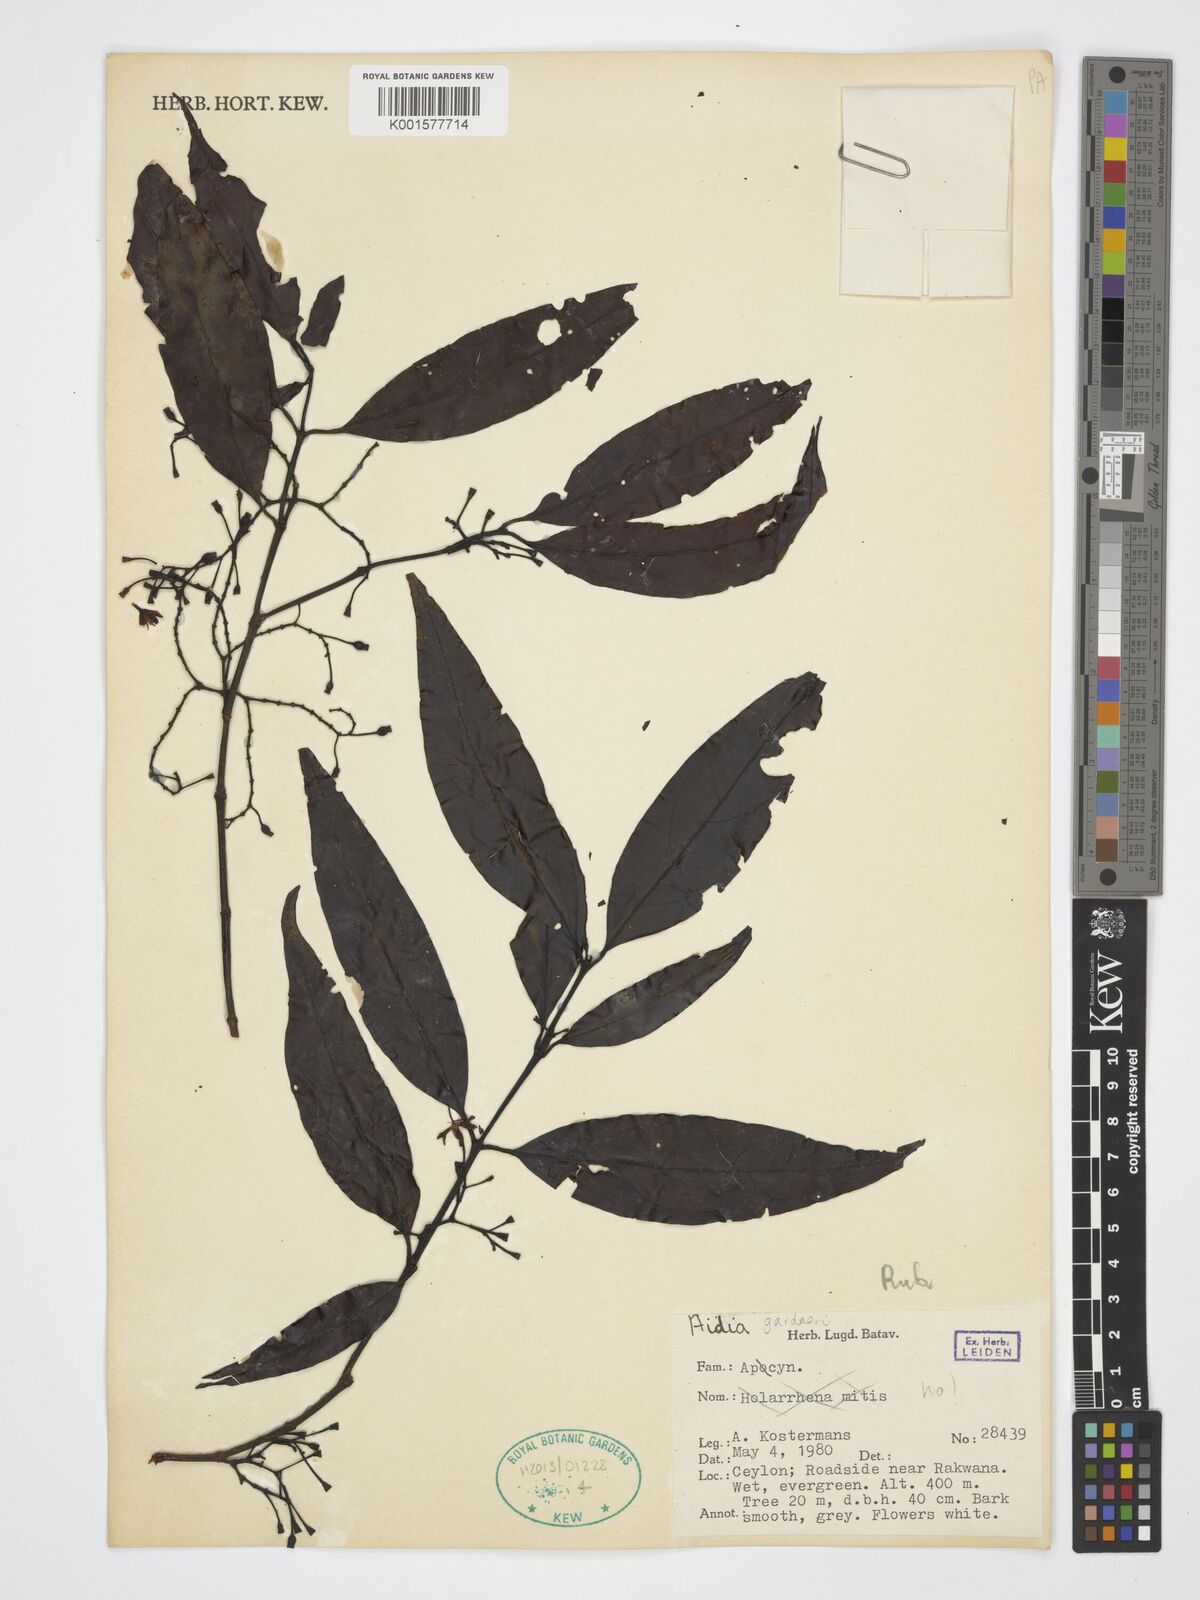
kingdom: Plantae
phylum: Tracheophyta
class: Magnoliopsida
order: Gentianales
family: Rubiaceae
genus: Aidia
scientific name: Aidia gardneri
